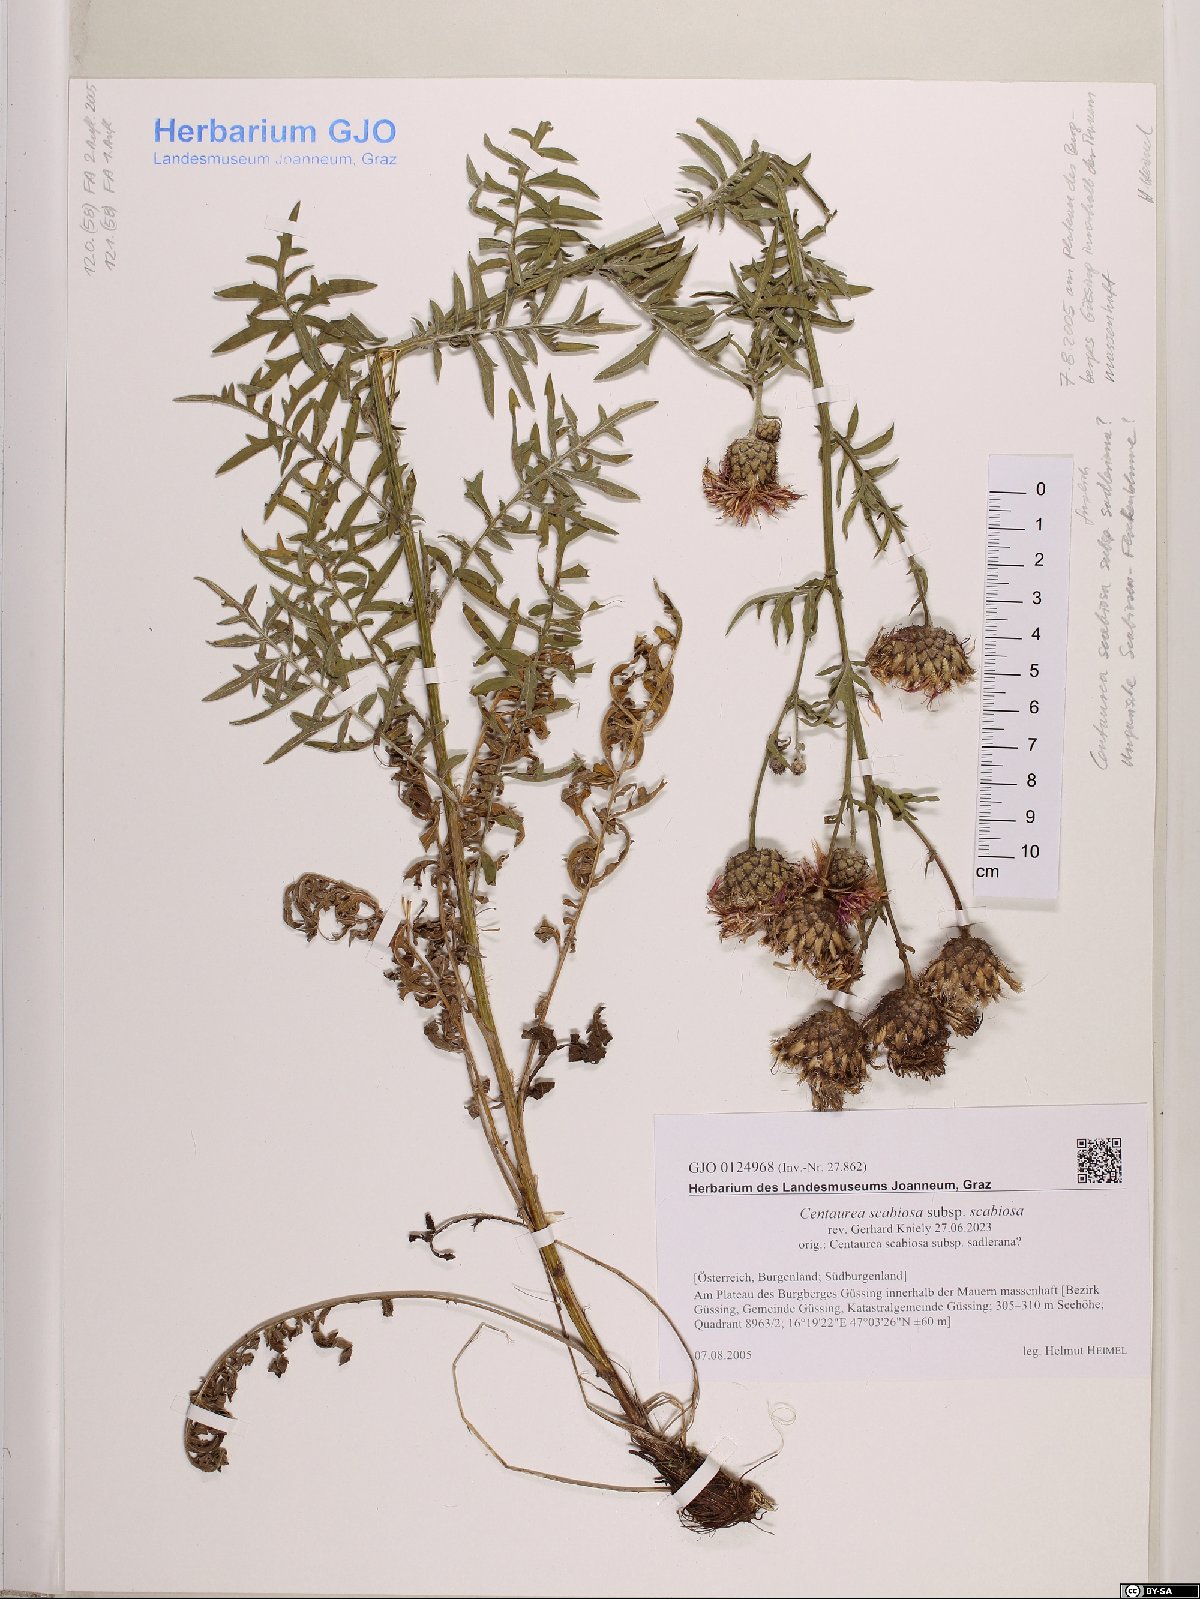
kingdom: Plantae
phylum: Tracheophyta
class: Magnoliopsida
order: Asterales
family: Asteraceae
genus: Centaurea
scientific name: Centaurea scabiosa
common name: Greater knapweed
